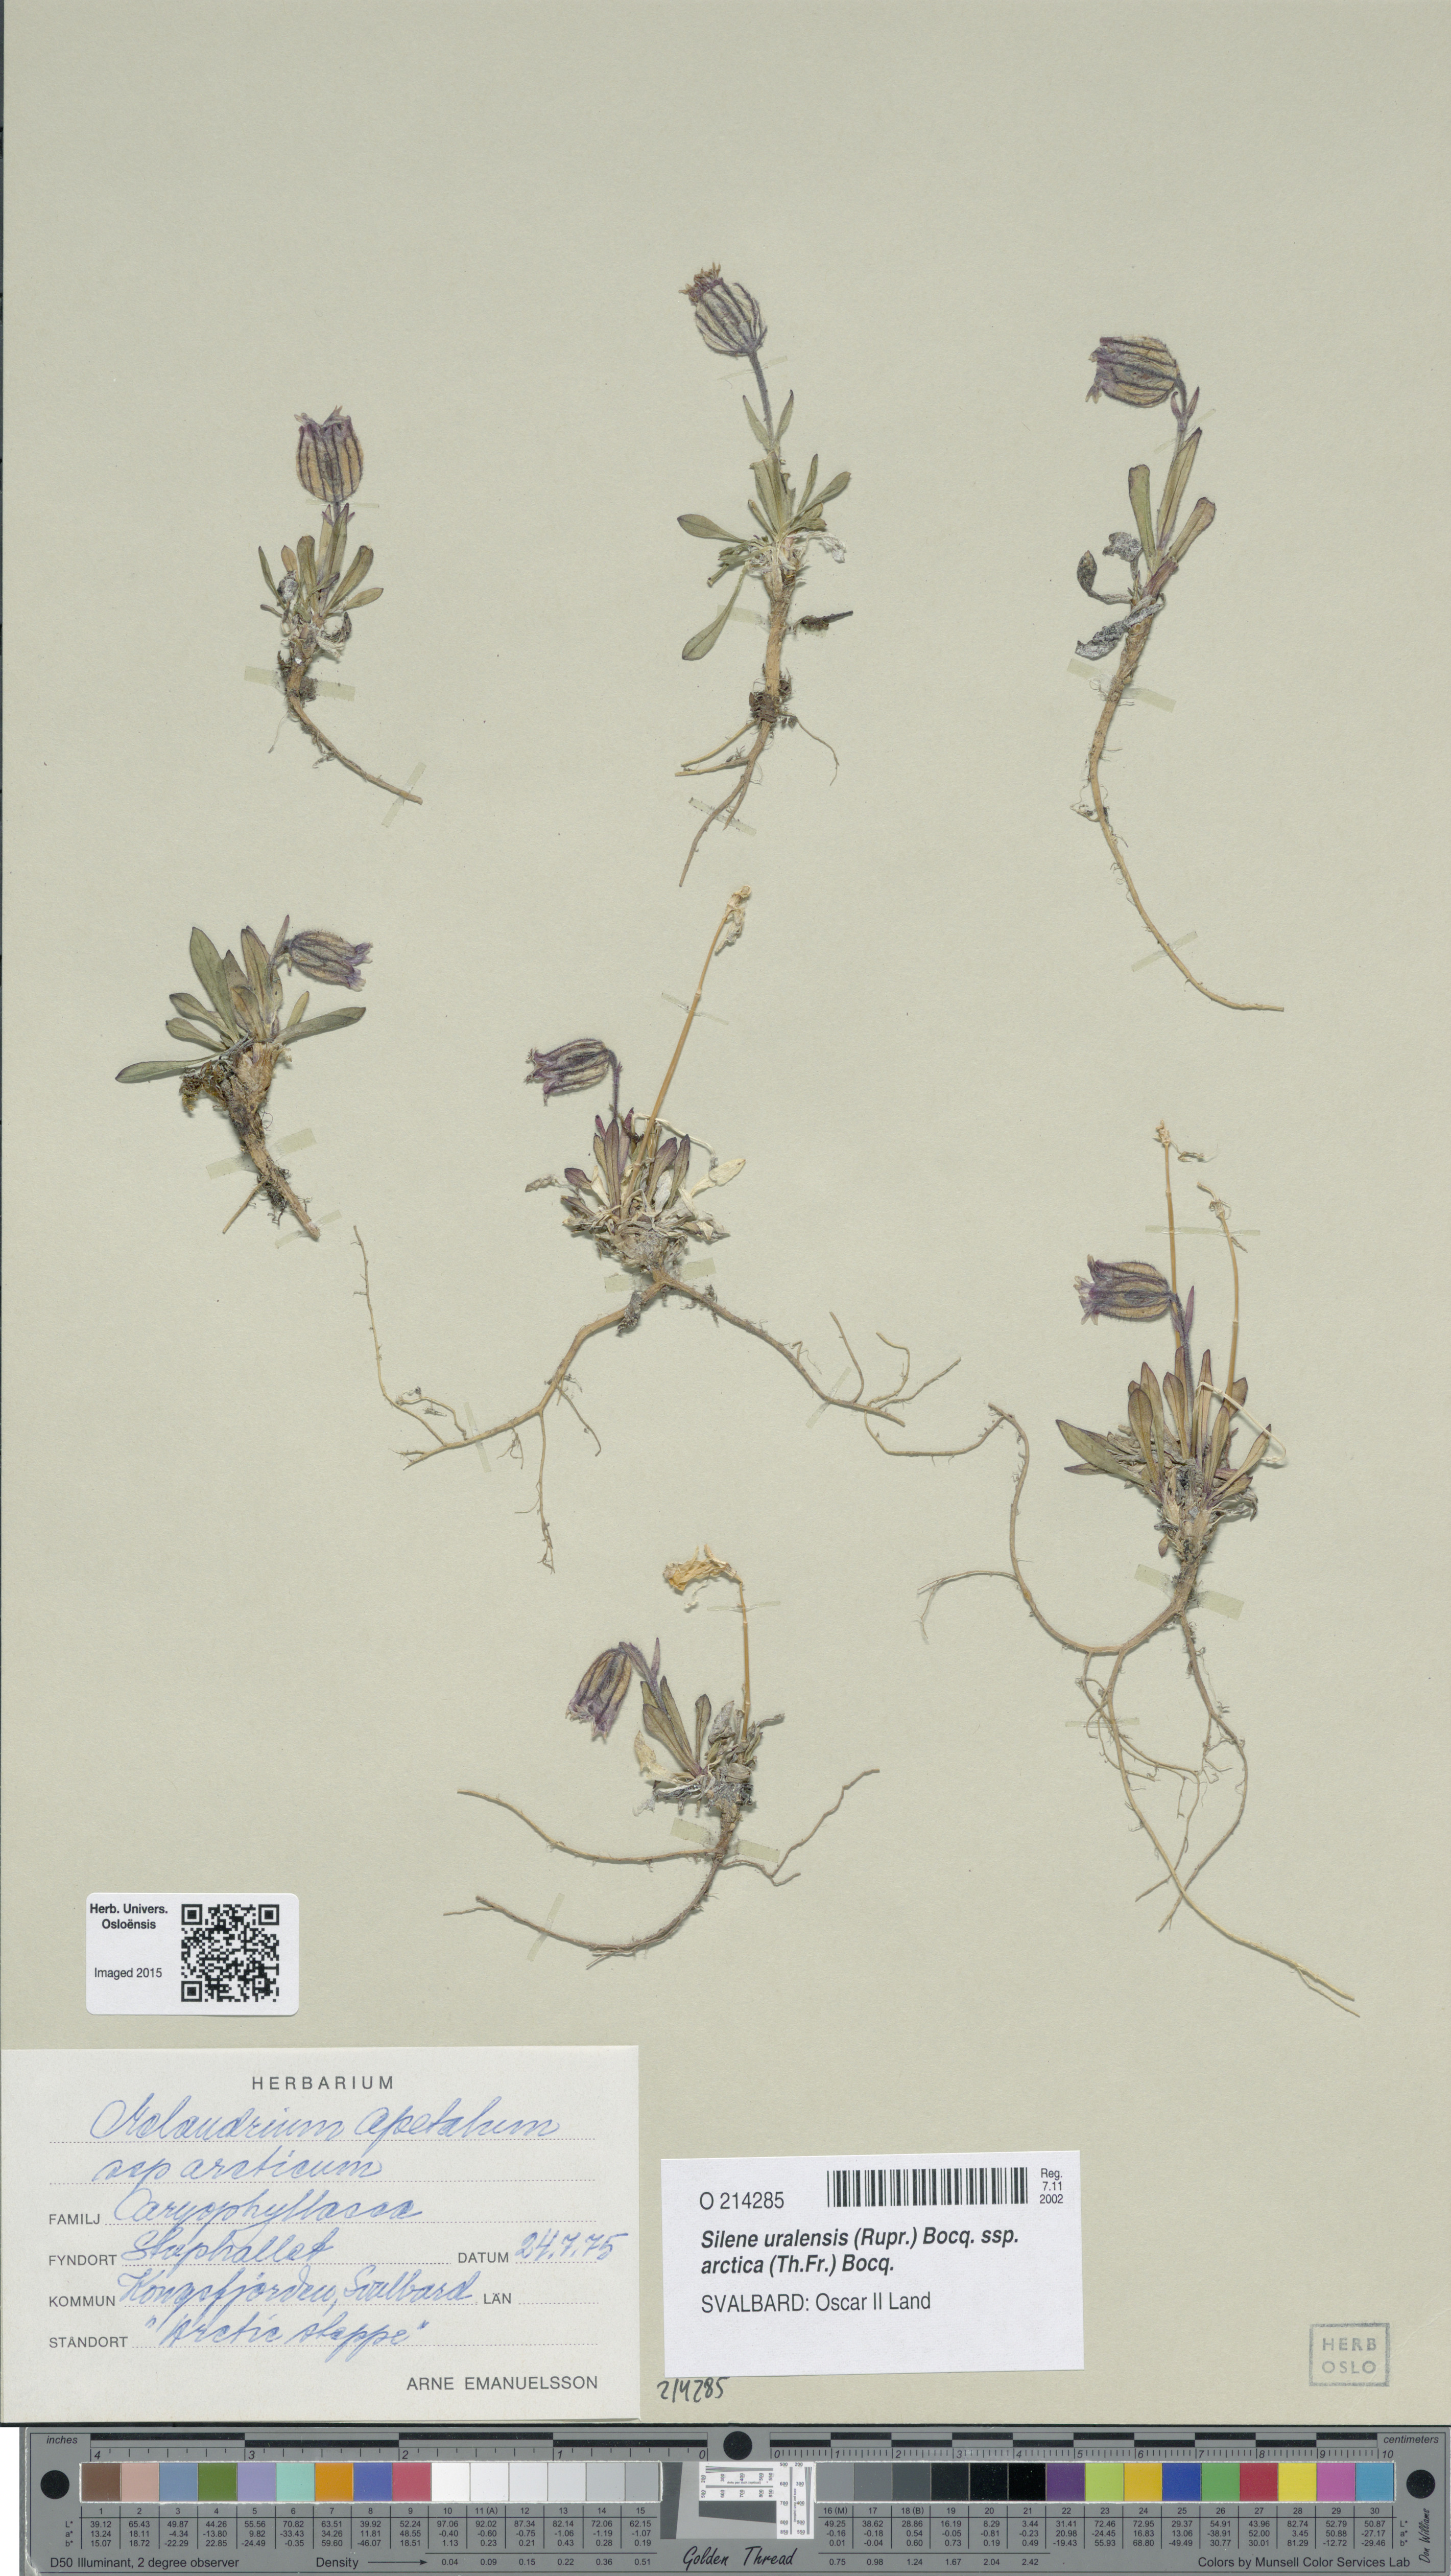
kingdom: Plantae
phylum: Tracheophyta
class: Magnoliopsida
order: Caryophyllales
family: Caryophyllaceae
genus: Silene
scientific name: Silene uralensis
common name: Nodding campion
